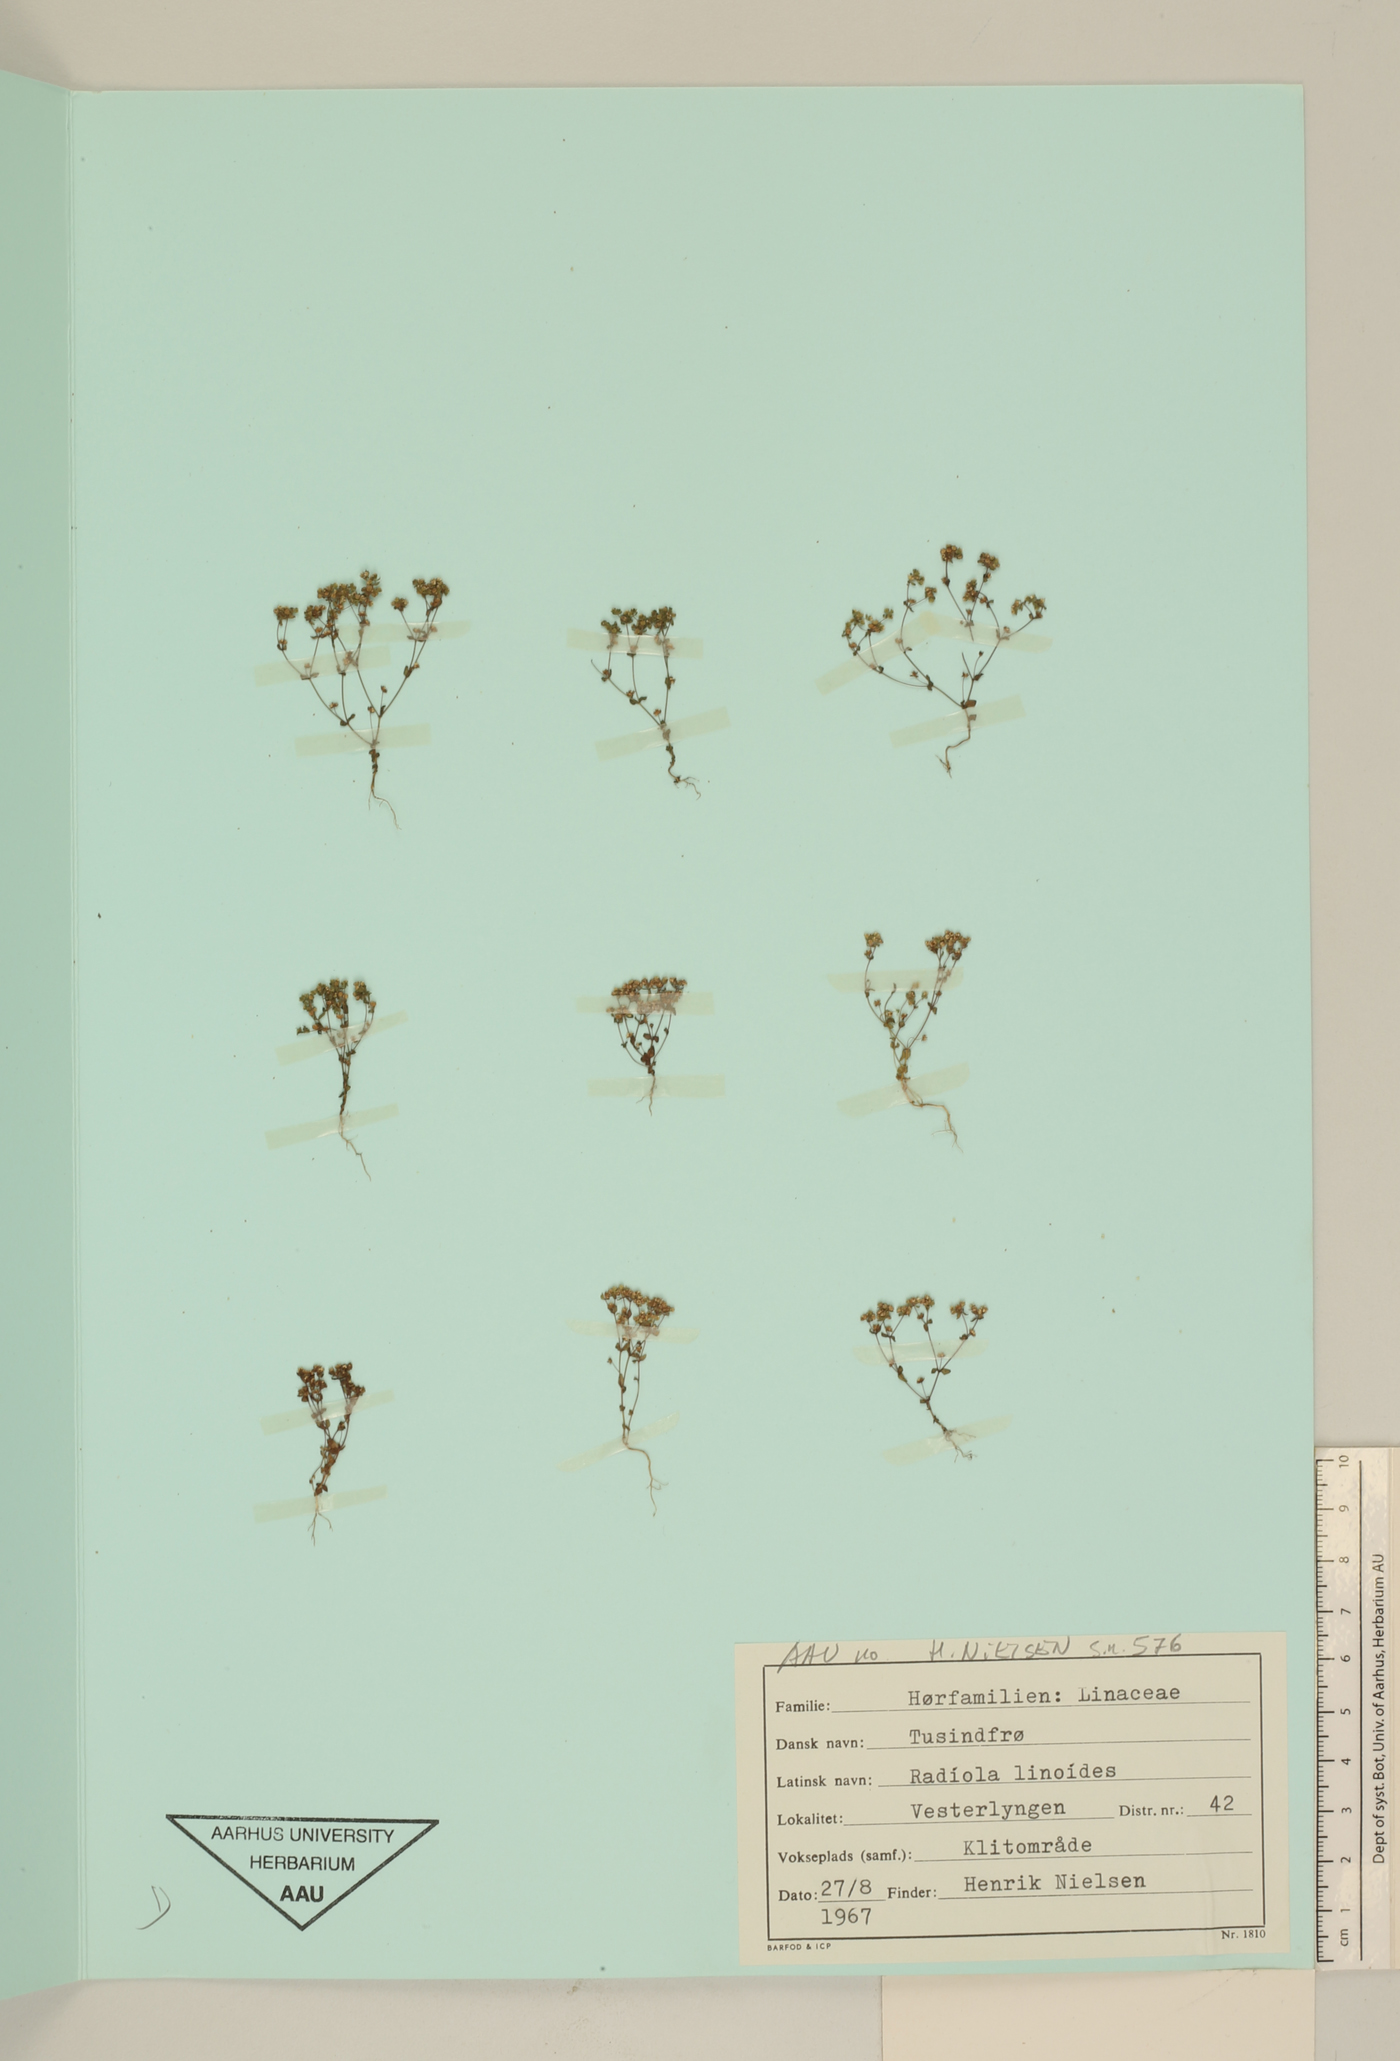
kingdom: Plantae
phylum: Tracheophyta
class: Magnoliopsida
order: Malpighiales
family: Linaceae
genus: Radiola
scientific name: Radiola linoides
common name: Allseed
